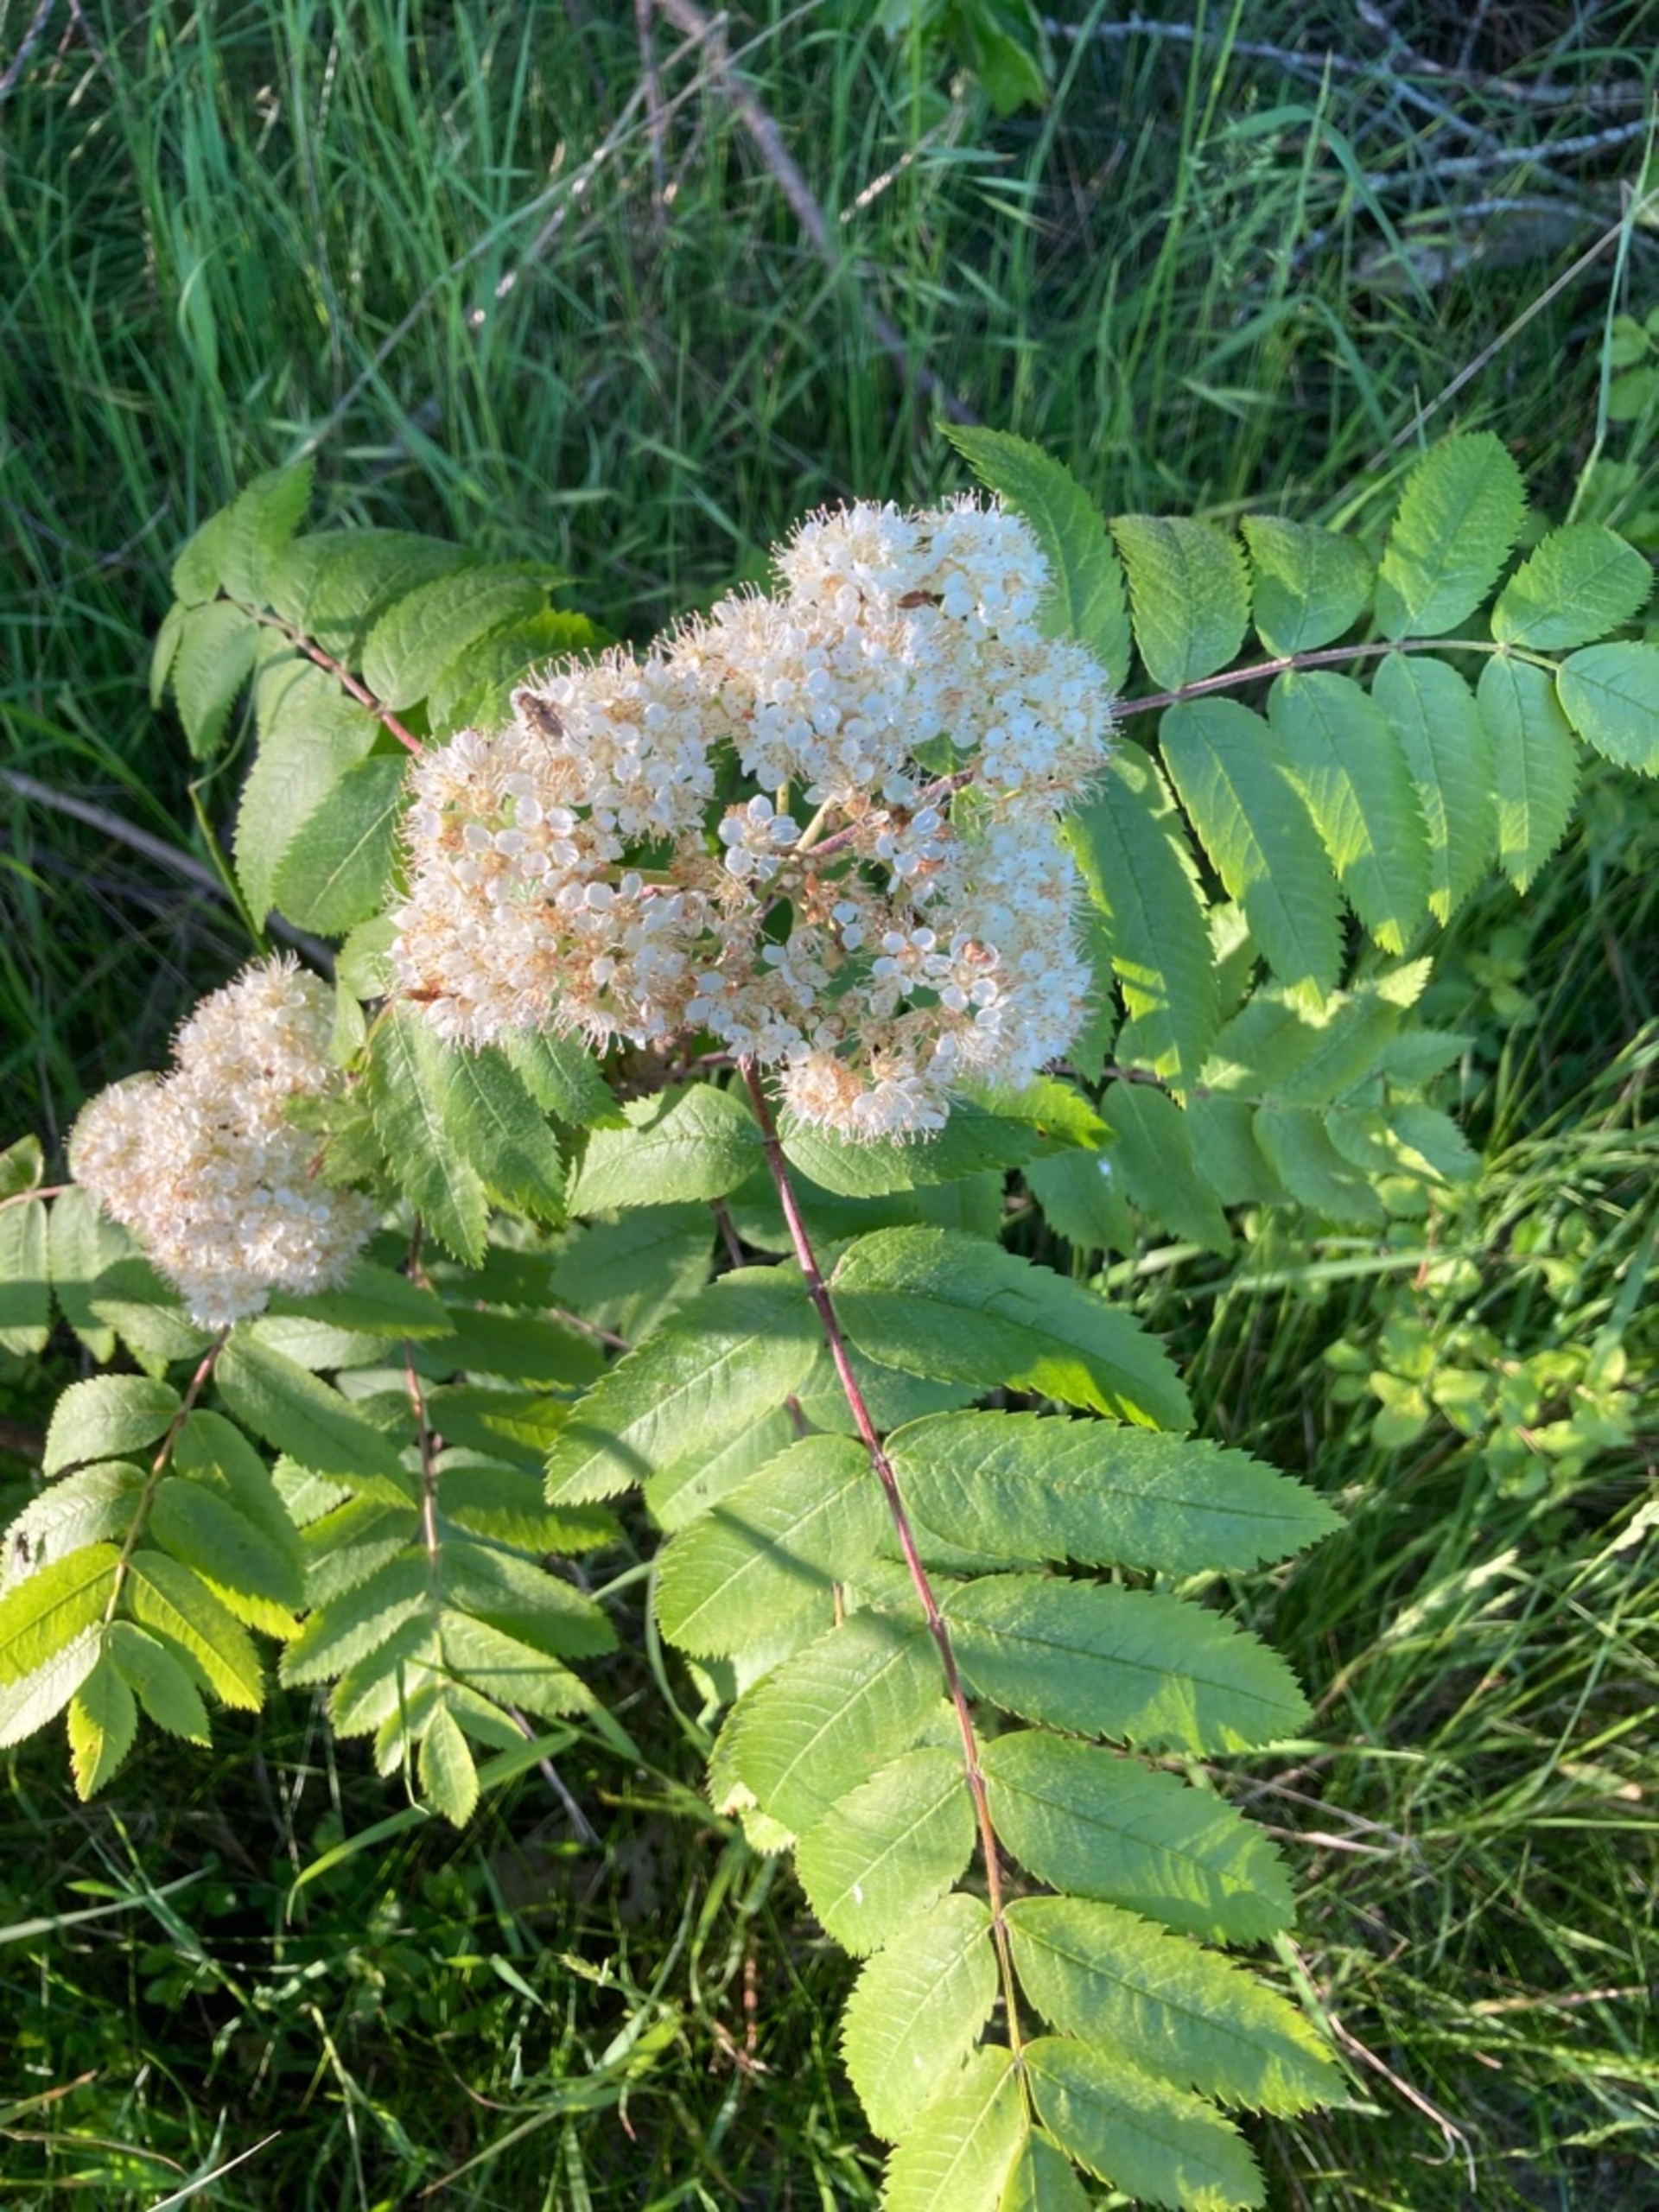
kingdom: Plantae
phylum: Tracheophyta
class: Magnoliopsida
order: Rosales
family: Rosaceae
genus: Sorbus
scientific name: Sorbus aucuparia
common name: Almindelig røn
